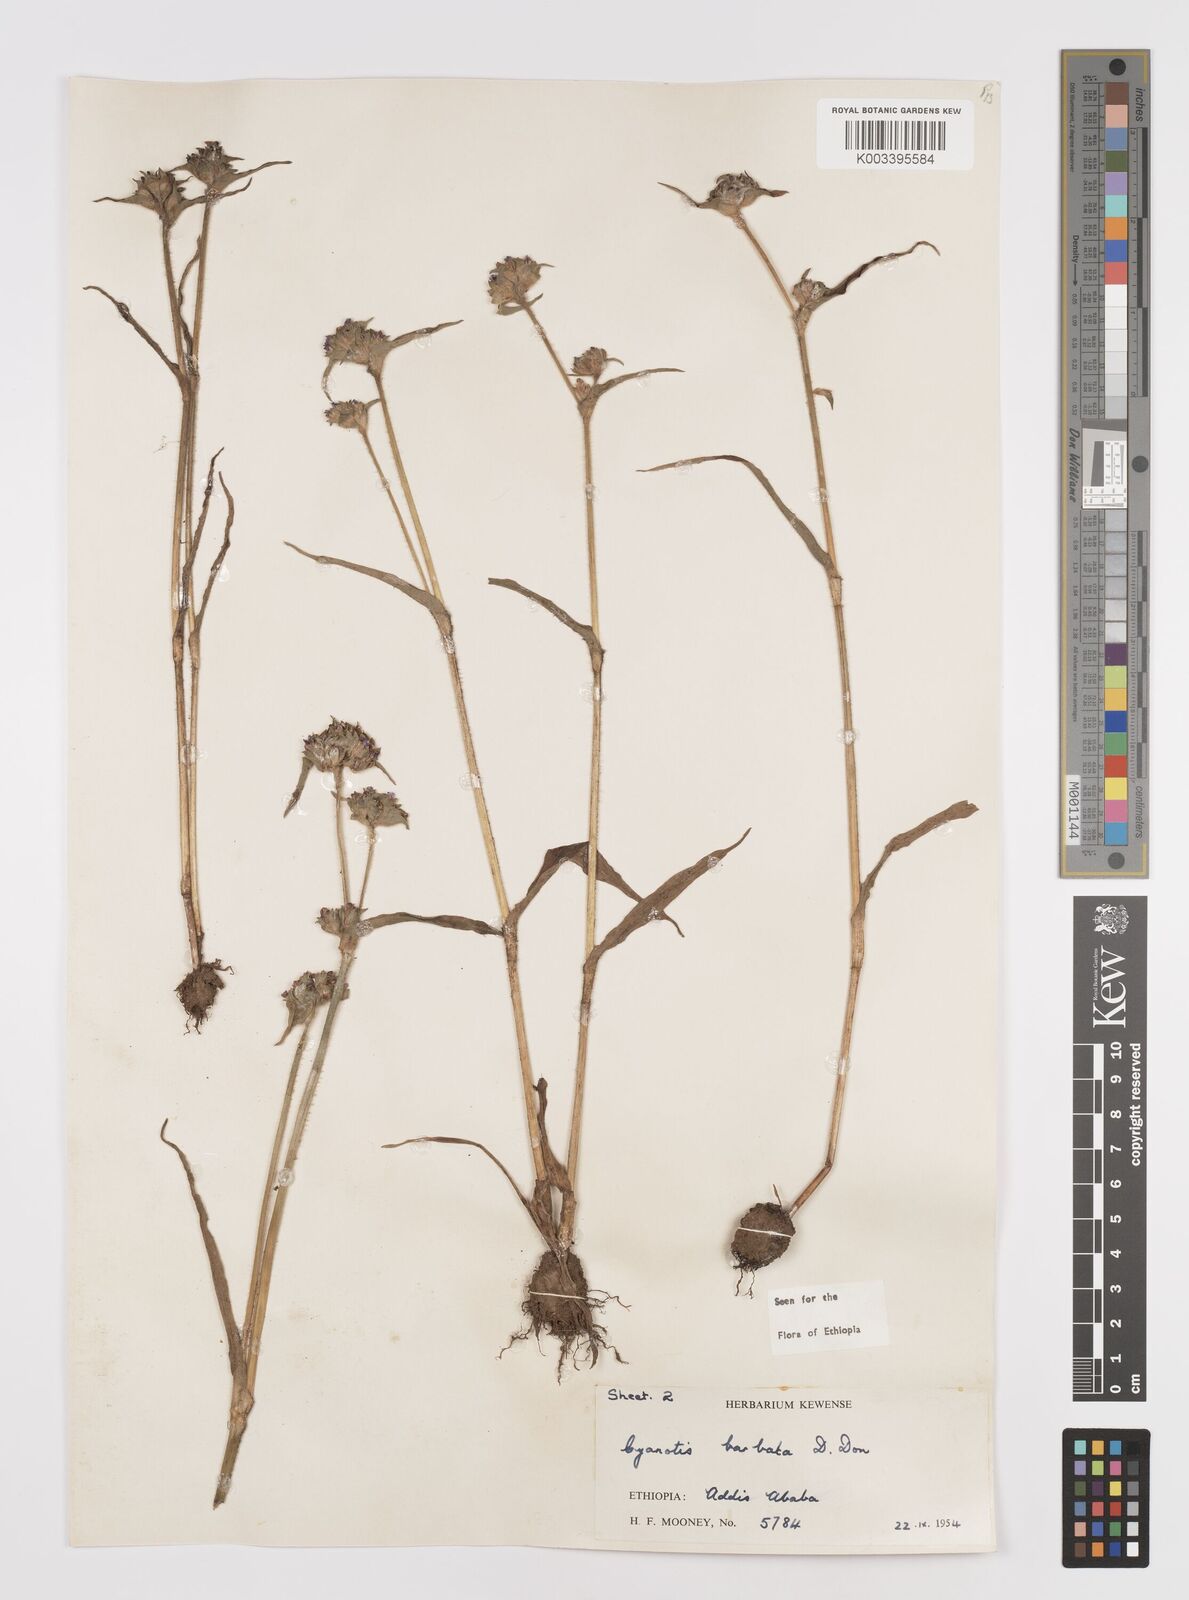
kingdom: Plantae
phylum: Tracheophyta
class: Liliopsida
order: Commelinales
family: Commelinaceae
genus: Cyanotis
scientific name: Cyanotis vaga
